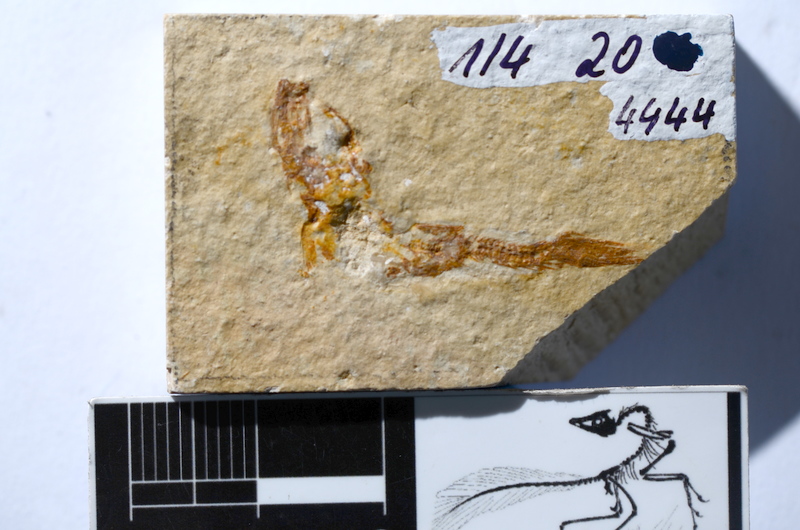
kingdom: Animalia
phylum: Chordata
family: Ascalaboidae
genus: Tharsis
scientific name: Tharsis dubius
